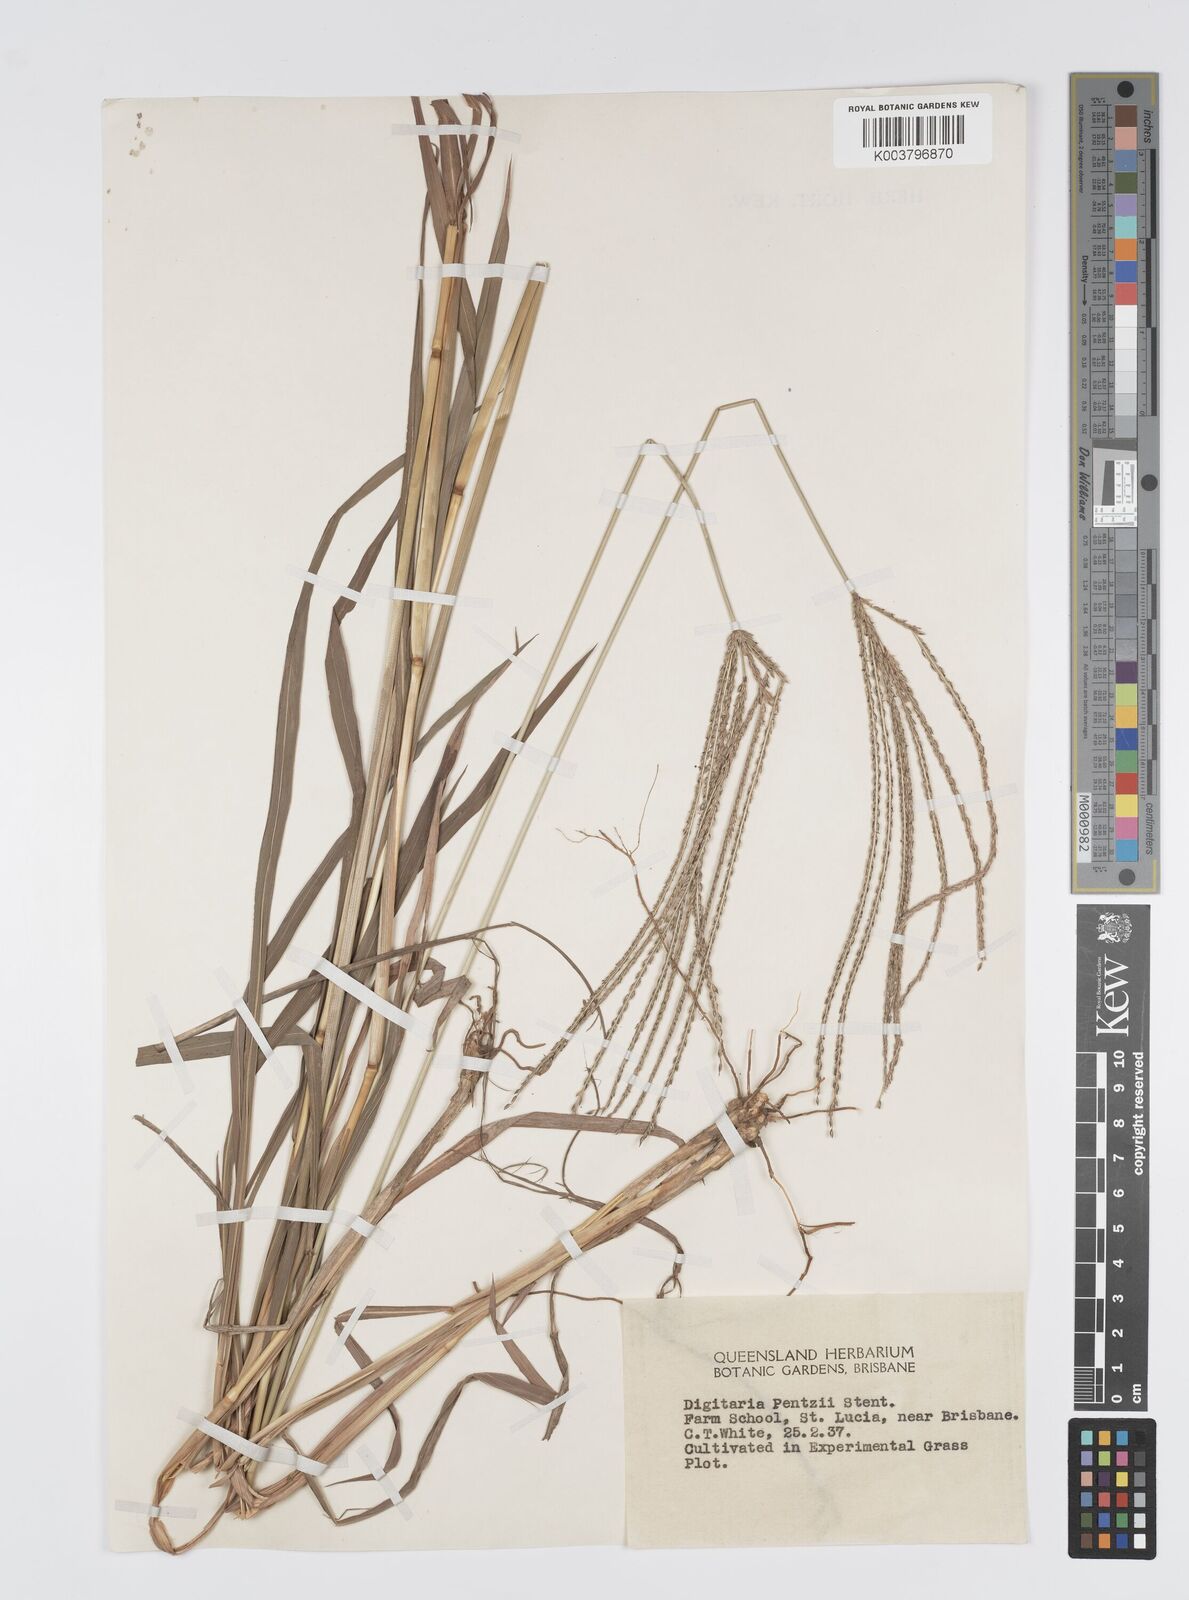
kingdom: Plantae
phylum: Tracheophyta
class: Liliopsida
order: Poales
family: Poaceae
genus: Digitaria
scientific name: Digitaria eriantha
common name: Digitgrass
